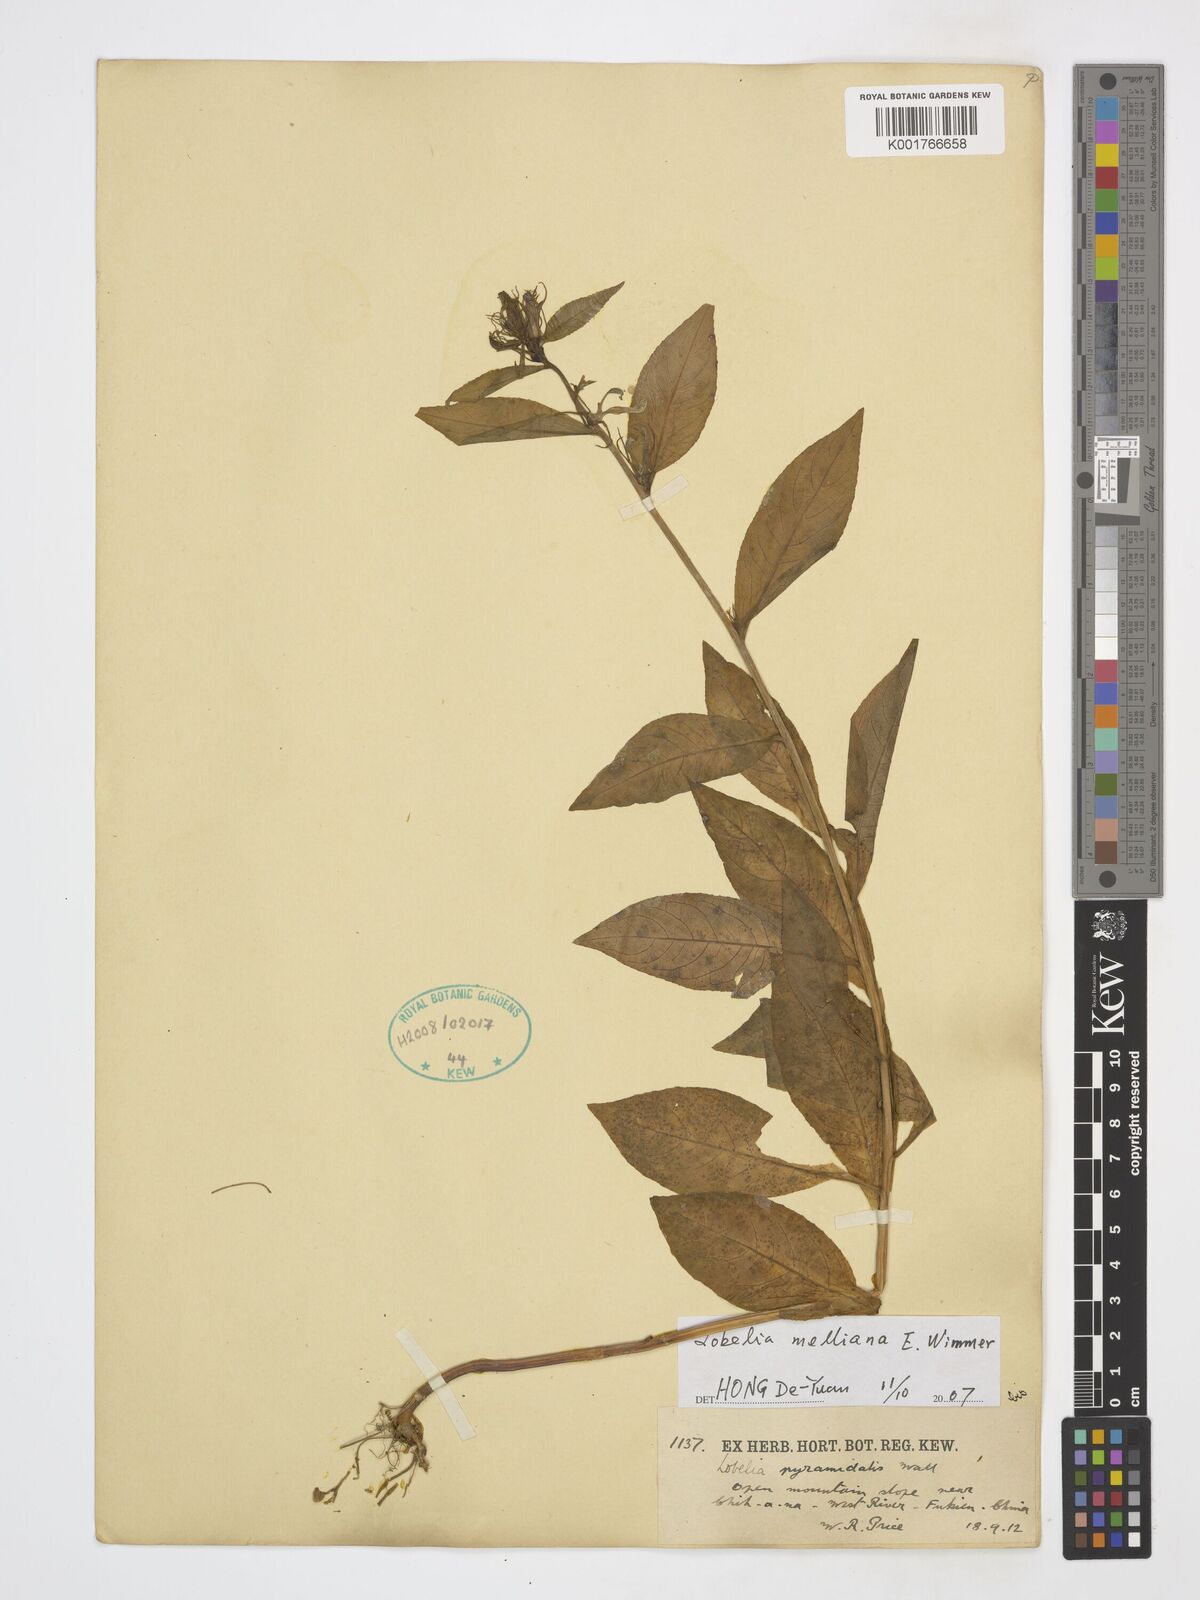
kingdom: Plantae
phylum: Tracheophyta
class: Magnoliopsida
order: Asterales
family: Campanulaceae
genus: Lobelia
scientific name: Lobelia melliana
